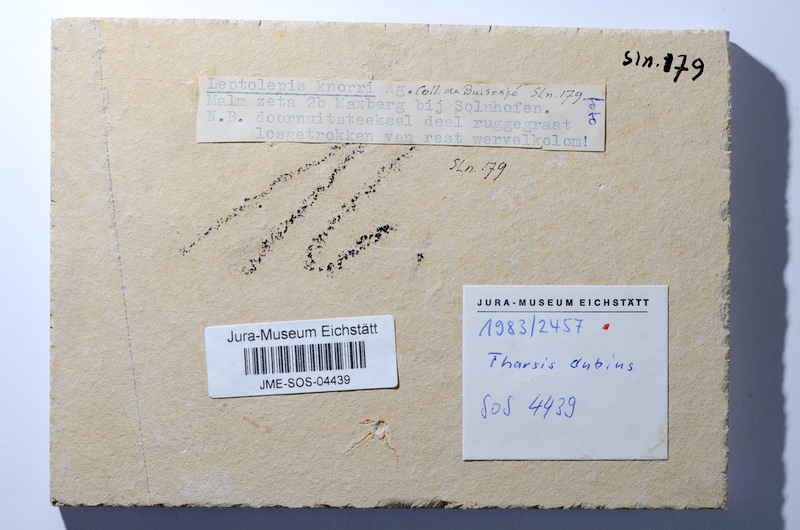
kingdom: Animalia
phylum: Chordata
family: Ascalaboidae
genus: Tharsis
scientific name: Tharsis dubius
